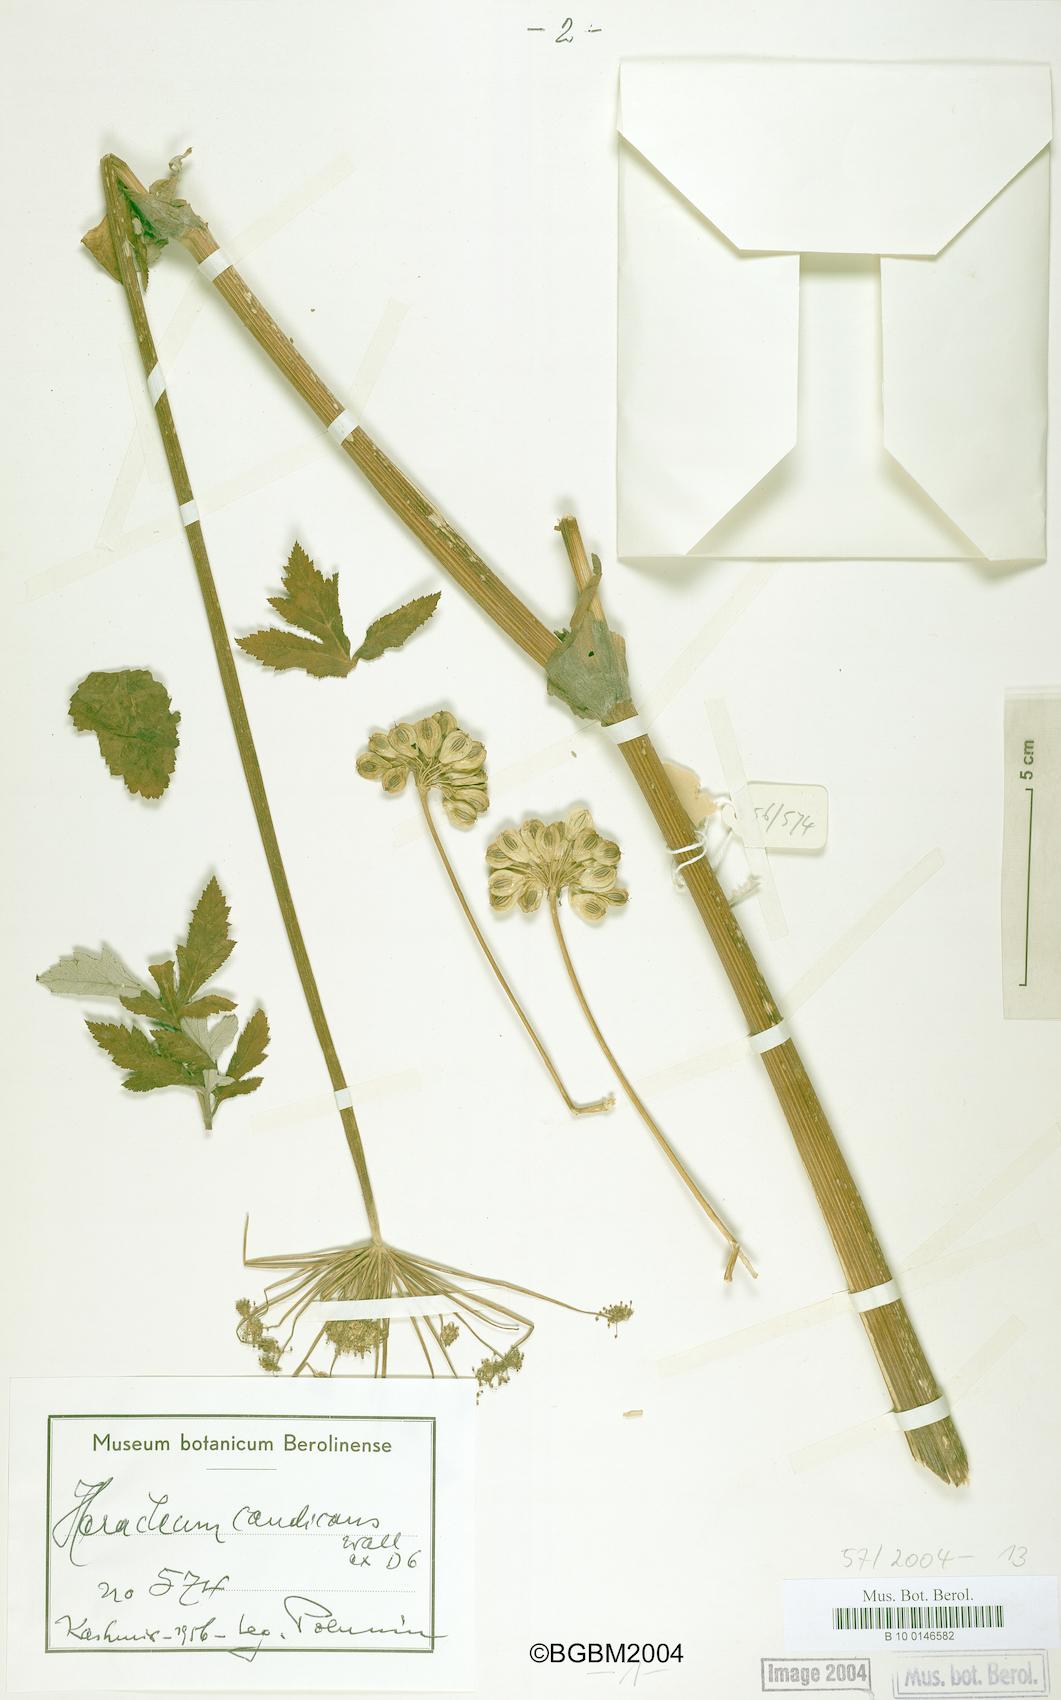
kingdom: Plantae
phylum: Tracheophyta
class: Magnoliopsida
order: Apiales
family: Apiaceae
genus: Tetrataenium
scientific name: Tetrataenium candicans
